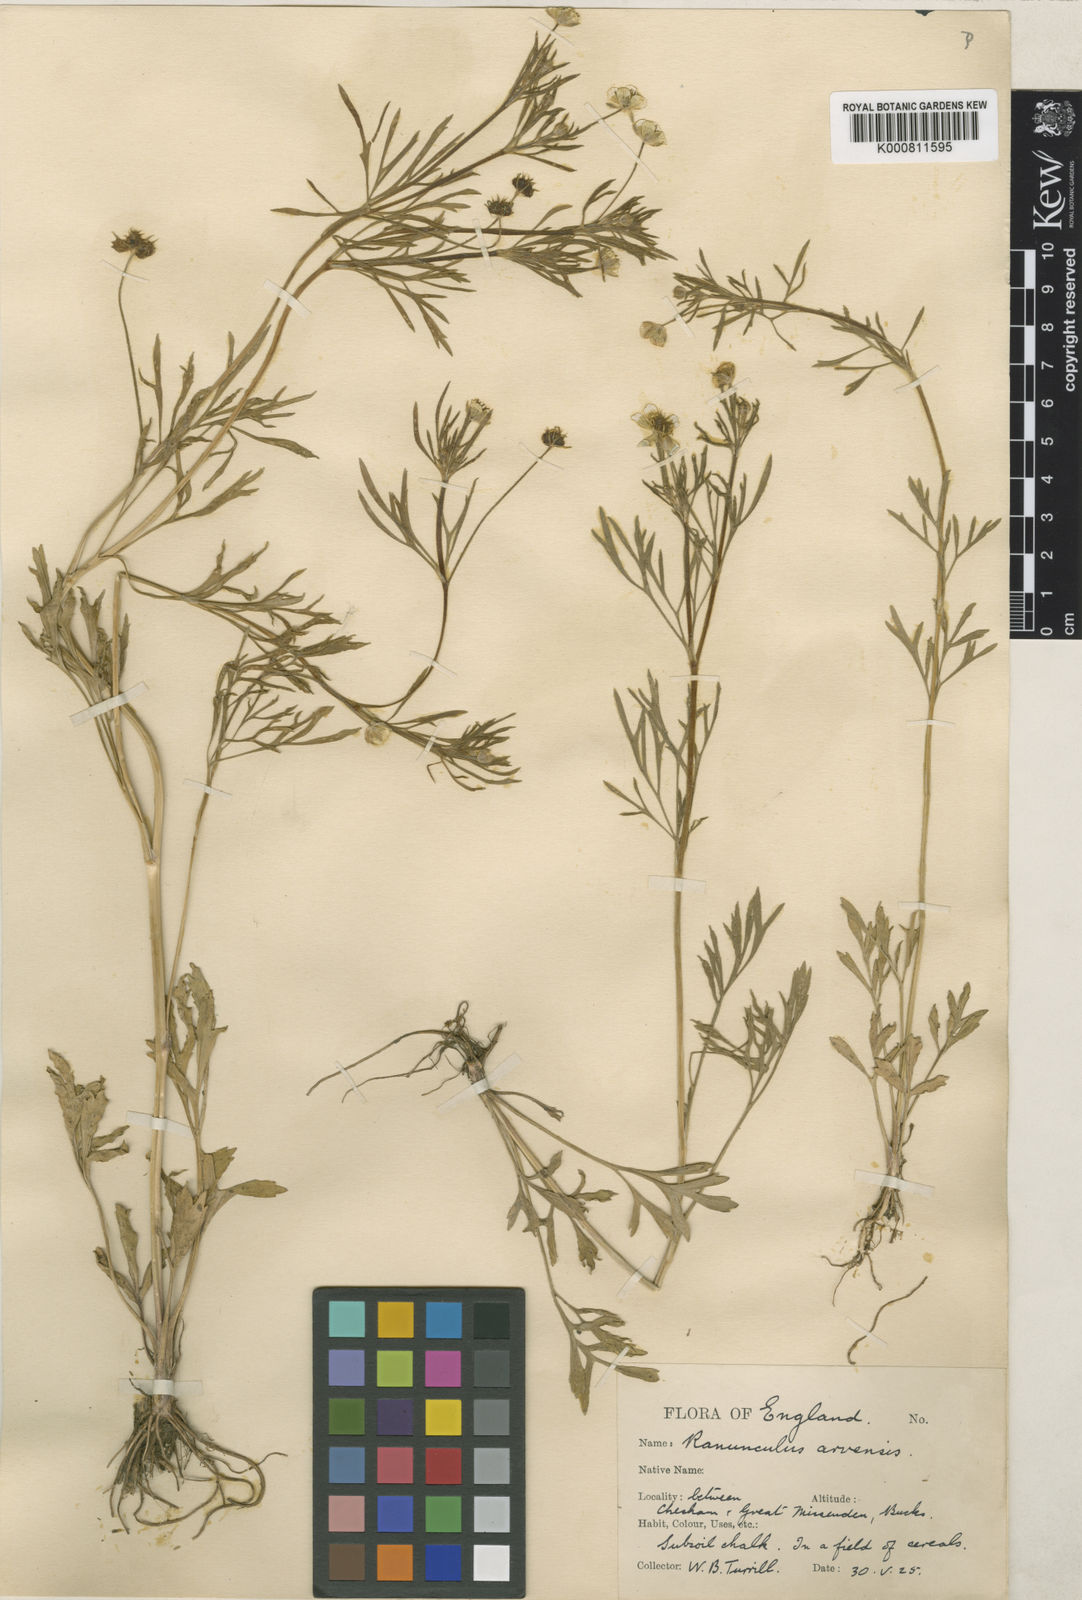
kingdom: Plantae
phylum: Tracheophyta
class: Magnoliopsida
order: Ranunculales
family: Ranunculaceae
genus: Ranunculus
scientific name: Ranunculus arvensis
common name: Corn buttercup
